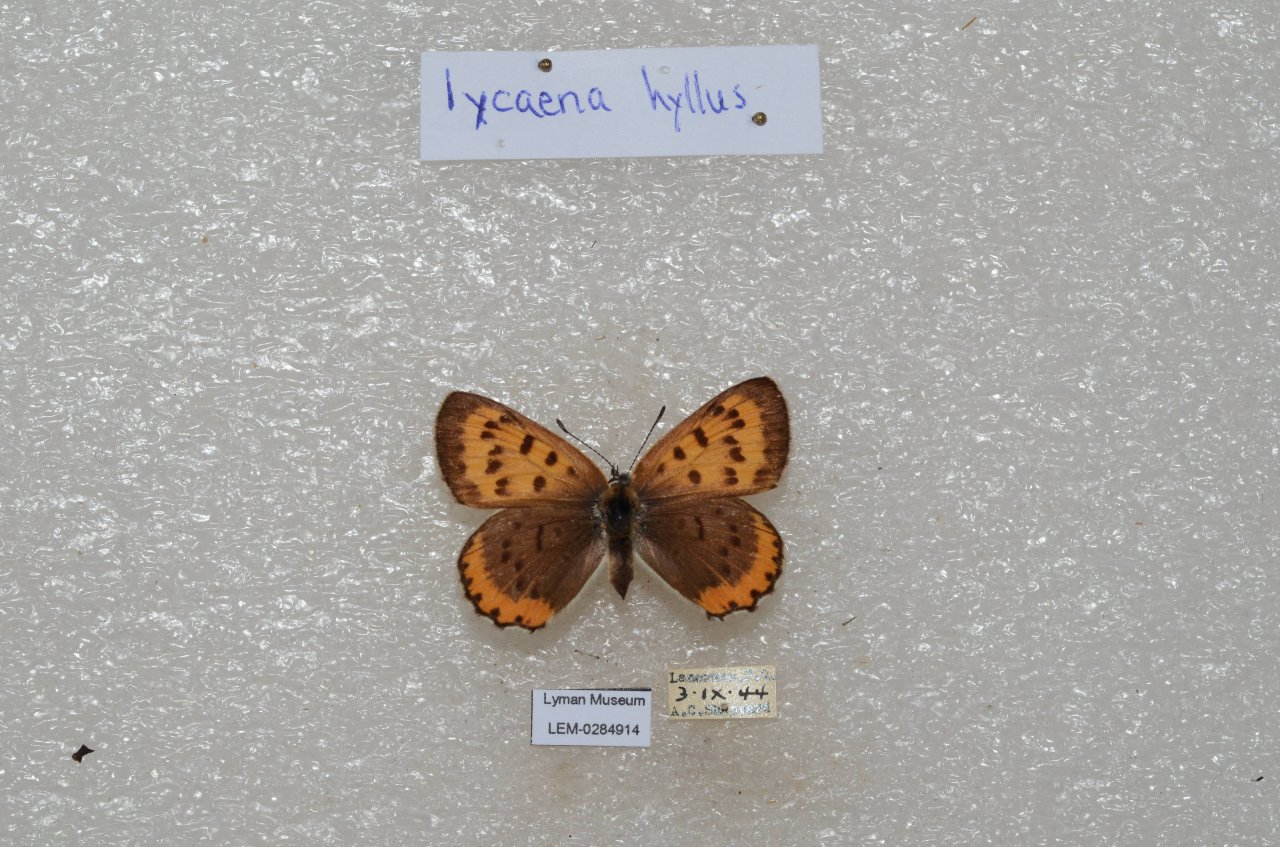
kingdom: Animalia
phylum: Arthropoda
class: Insecta
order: Lepidoptera
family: Sesiidae
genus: Sesia
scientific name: Sesia Lycaena hyllus
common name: Bronze Copper
